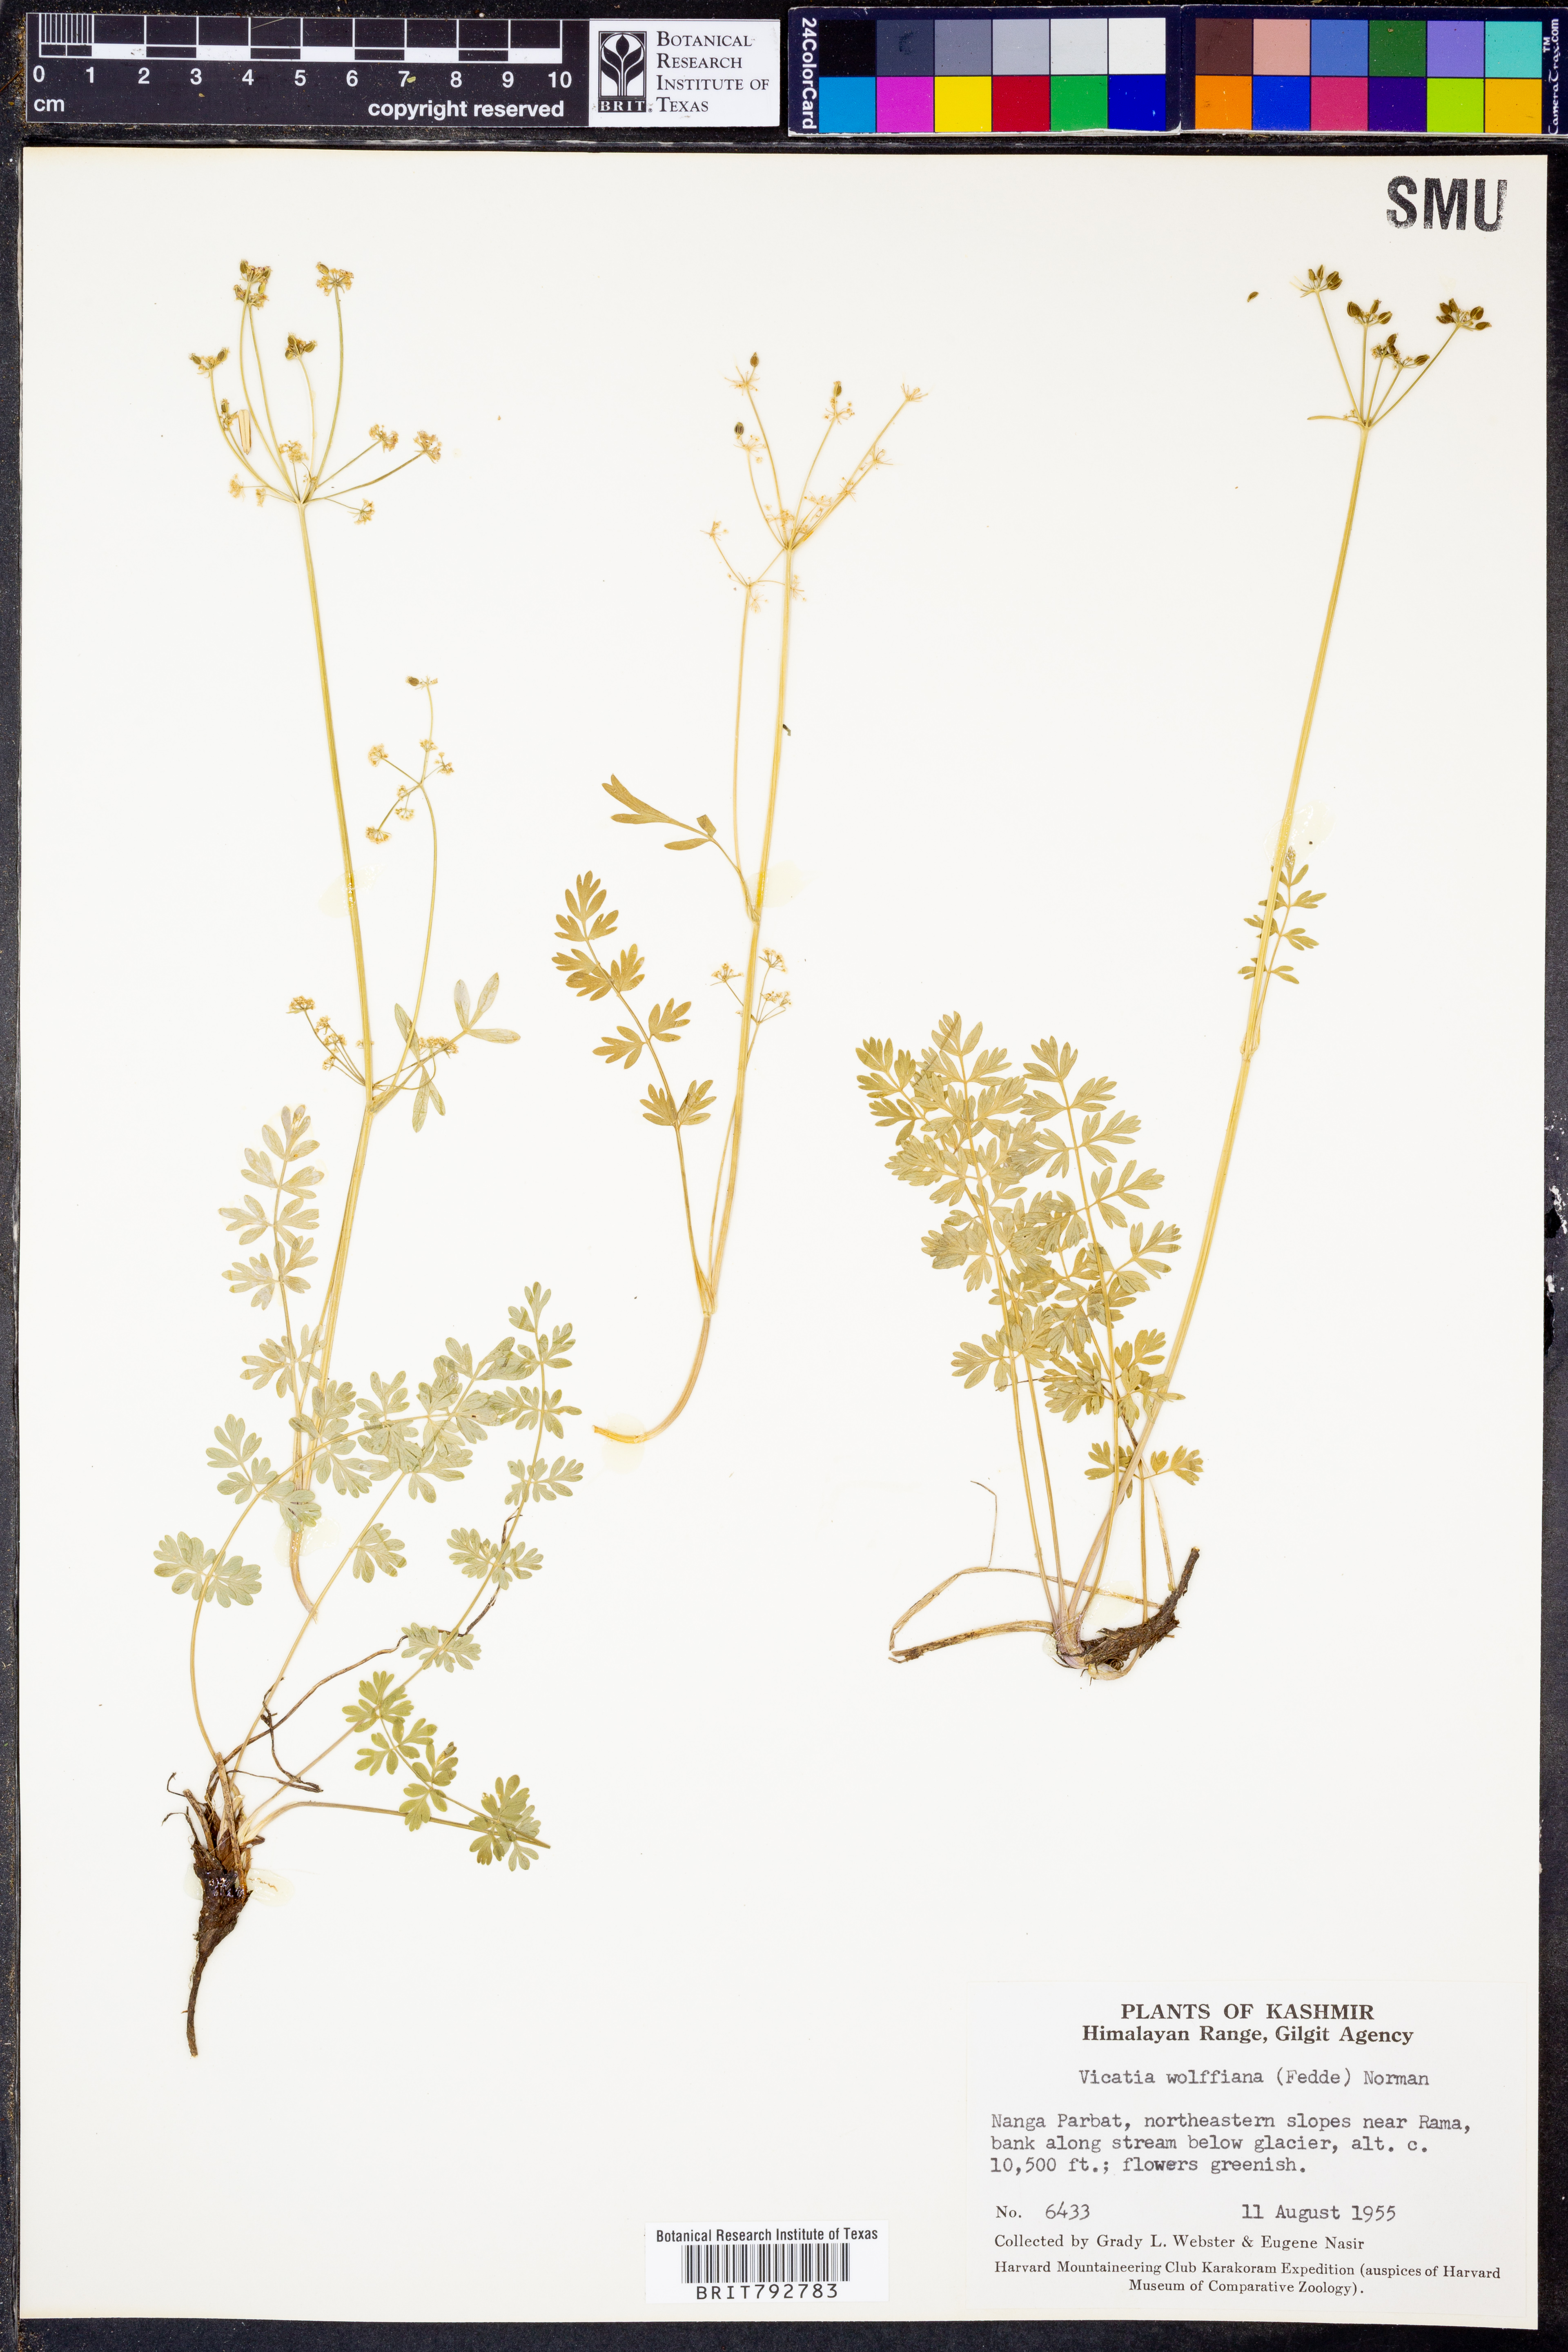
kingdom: Plantae
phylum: Tracheophyta
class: Magnoliopsida
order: Apiales
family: Apiaceae
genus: Vicatia
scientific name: Vicatia atrosanguinea
